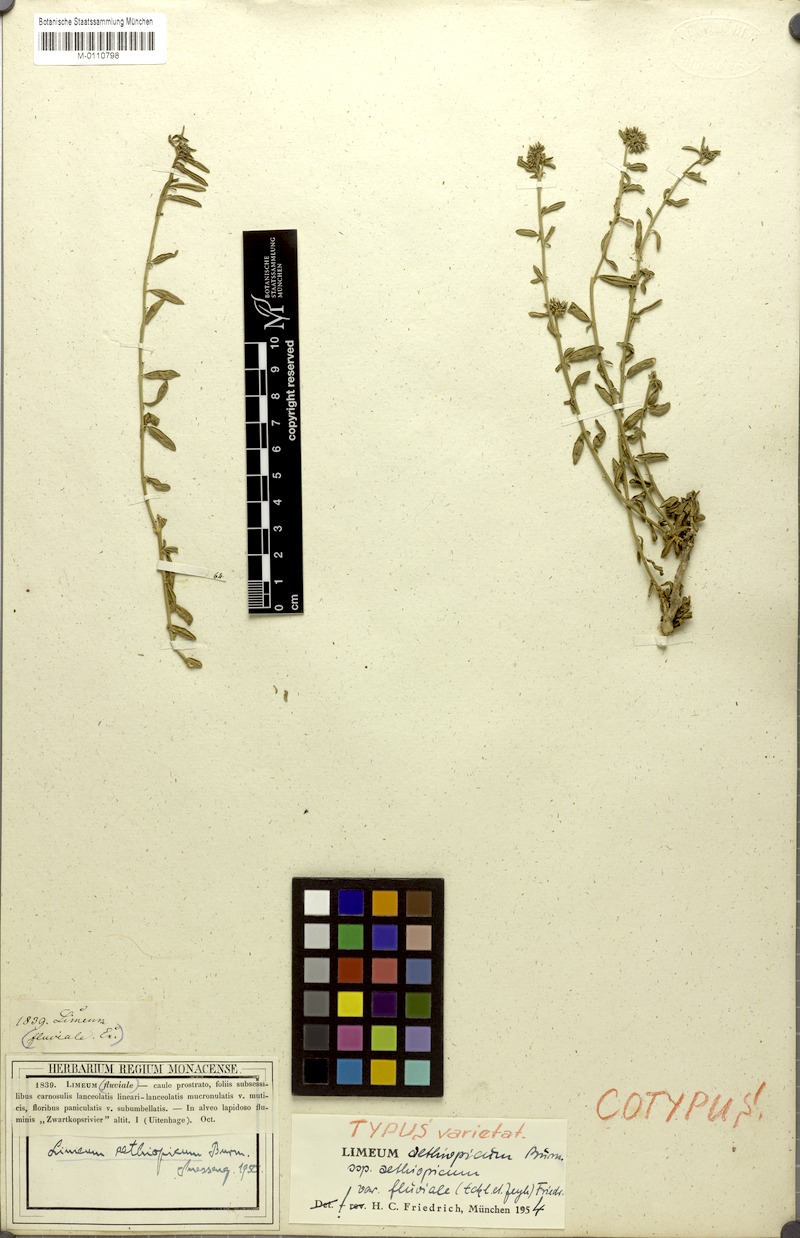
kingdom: Plantae
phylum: Tracheophyta
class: Magnoliopsida
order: Caryophyllales
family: Limeaceae
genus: Limeum
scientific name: Limeum aethiopicum
